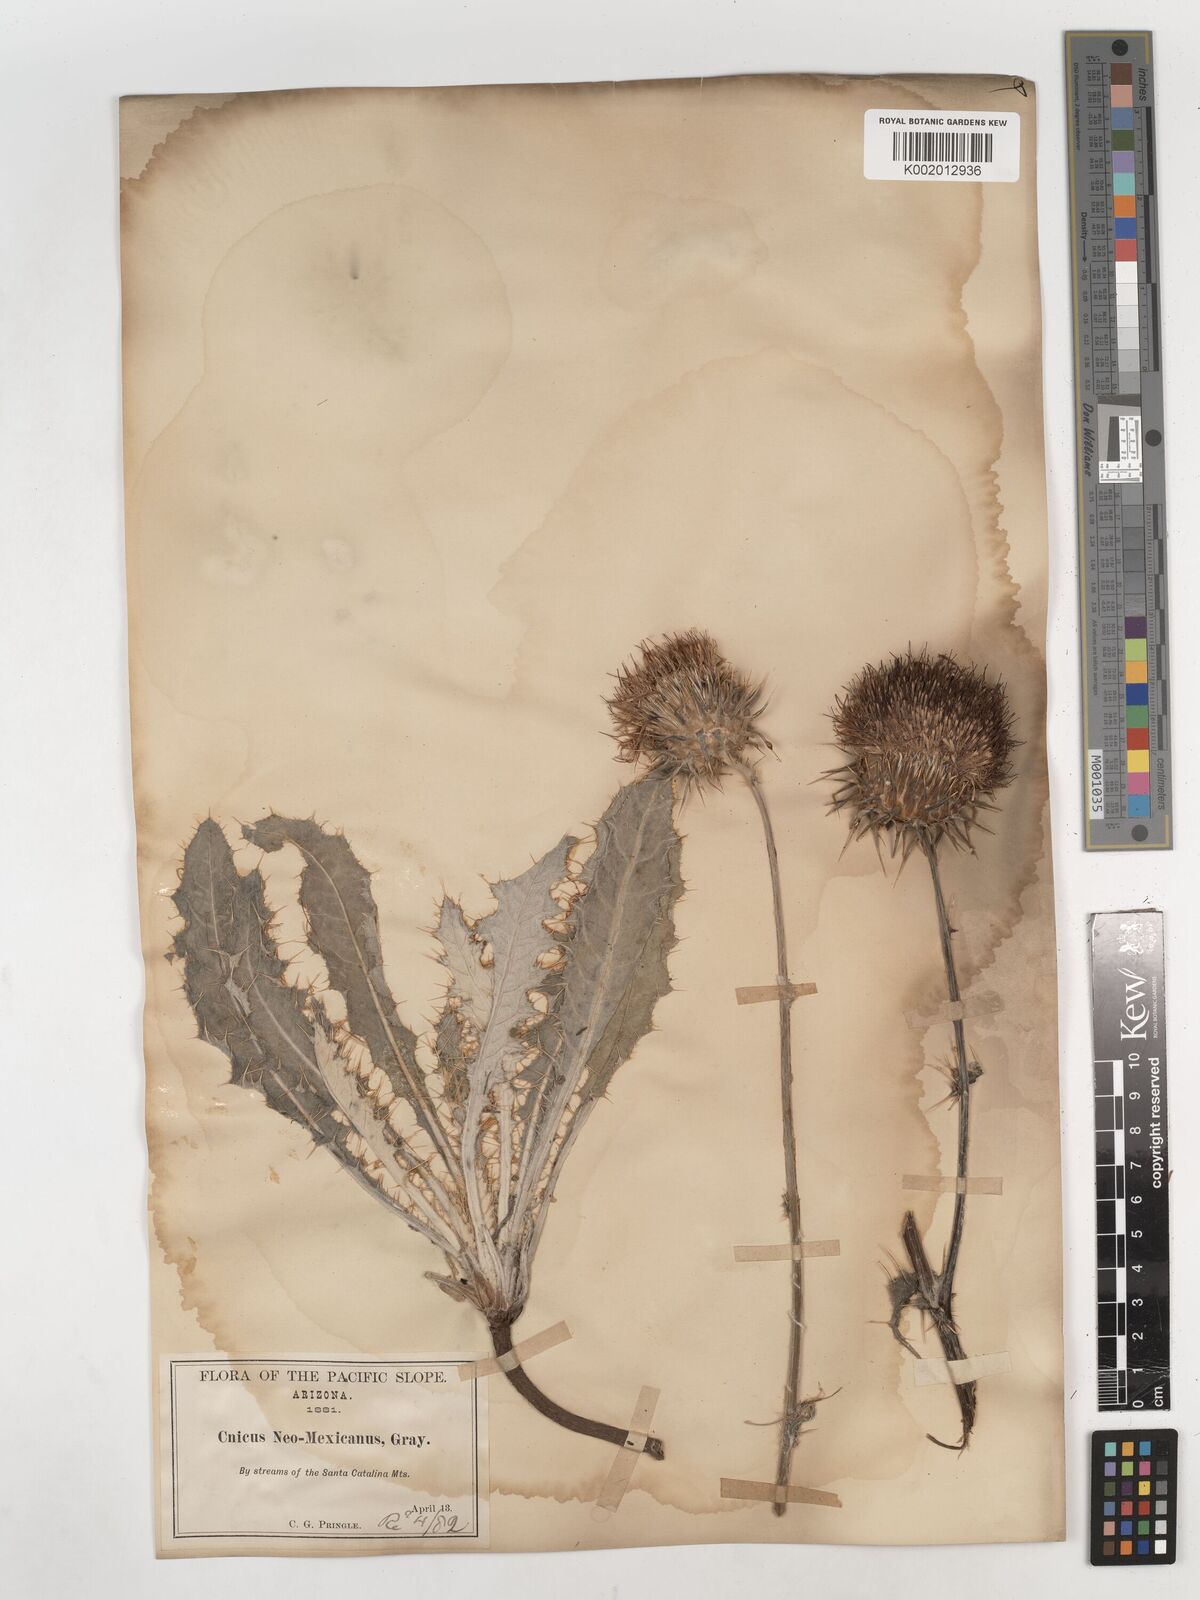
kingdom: Plantae
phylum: Tracheophyta
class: Magnoliopsida
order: Asterales
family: Asteraceae
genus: Cirsium
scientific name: Cirsium neomexicanum
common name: New mexico thistle
